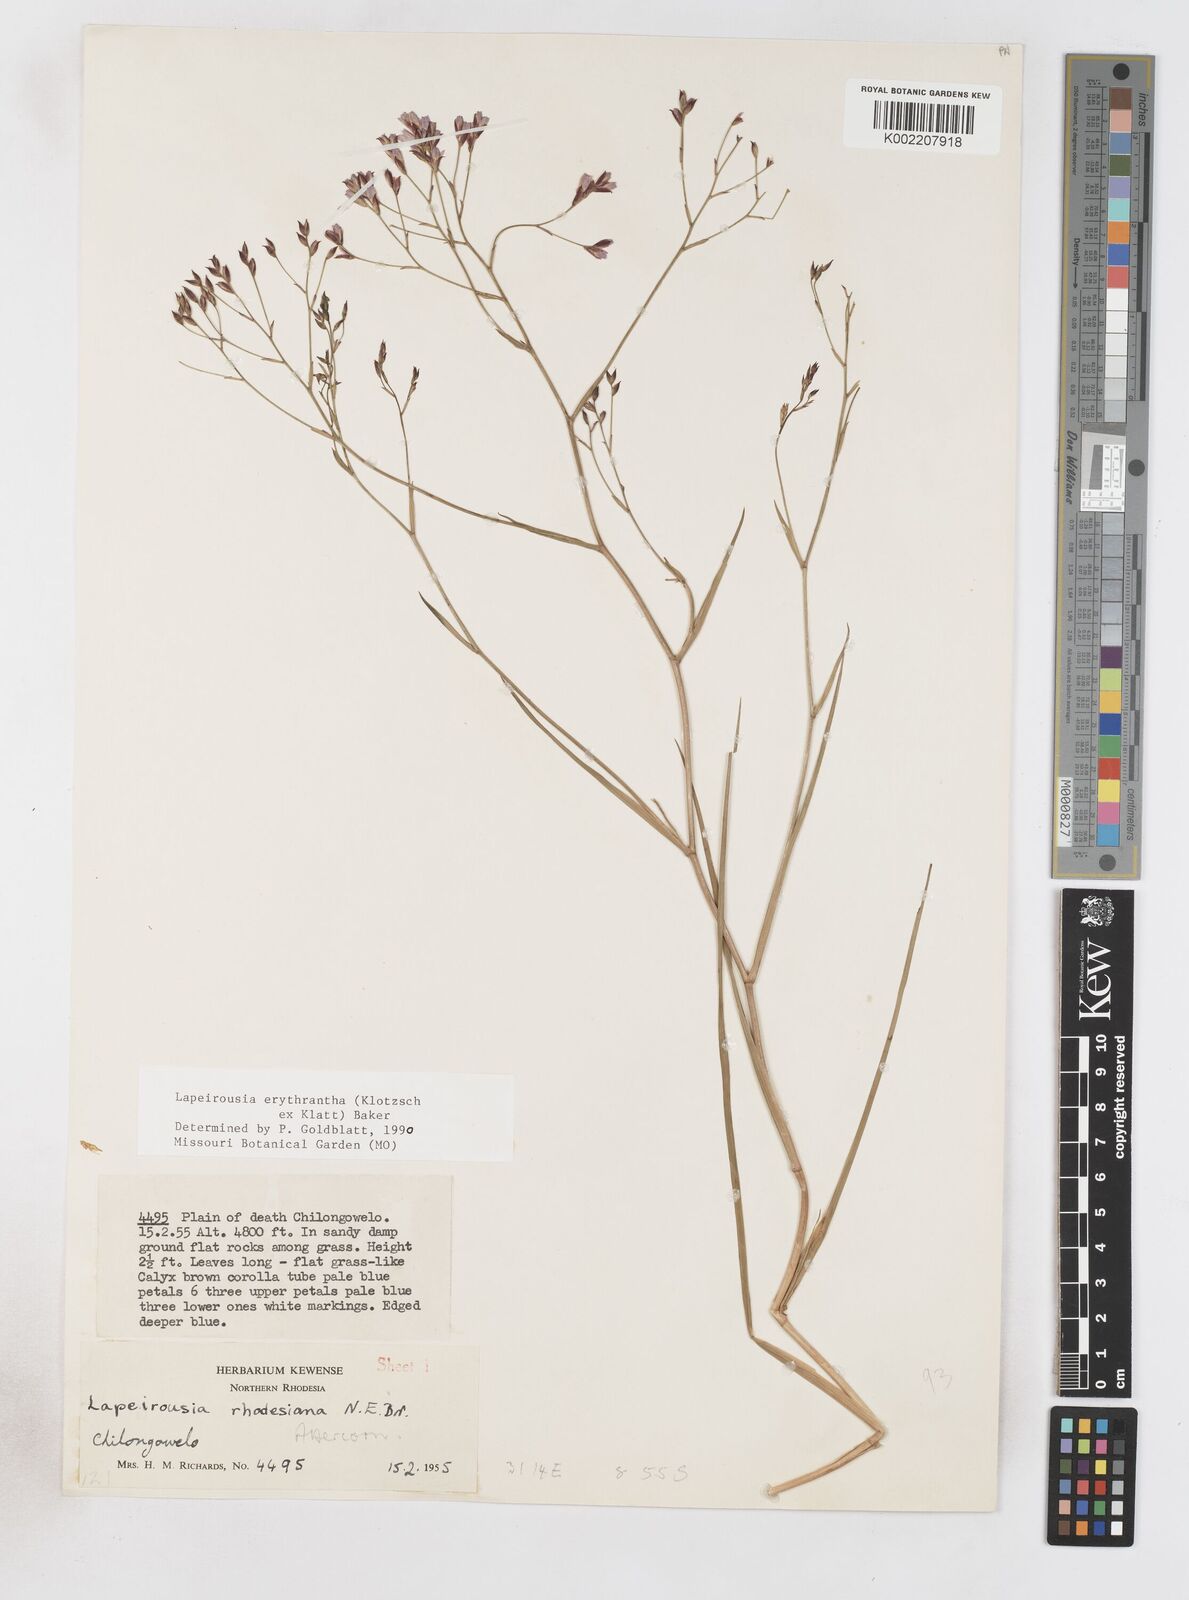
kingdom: Plantae
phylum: Tracheophyta
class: Liliopsida
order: Asparagales
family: Iridaceae
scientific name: Iridaceae
